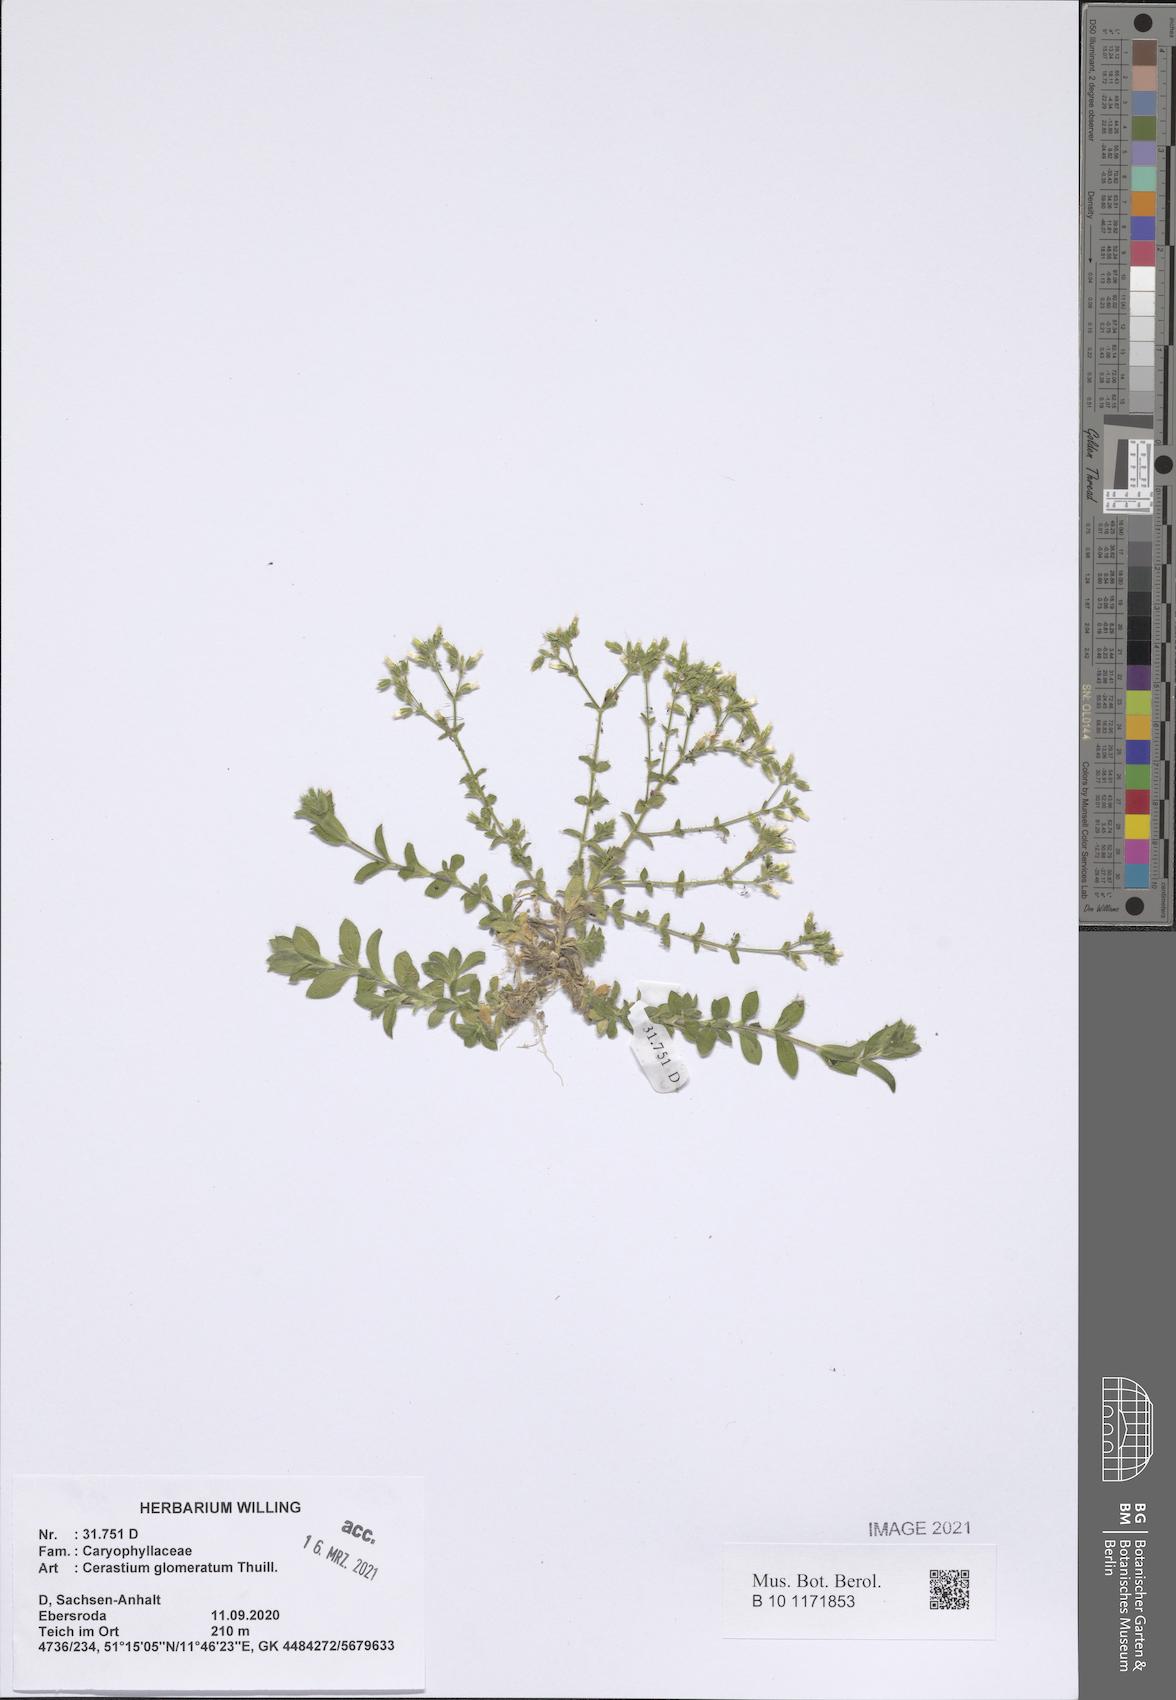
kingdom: Plantae
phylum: Tracheophyta
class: Magnoliopsida
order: Caryophyllales
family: Caryophyllaceae
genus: Cerastium
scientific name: Cerastium glomeratum
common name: Sticky chickweed
